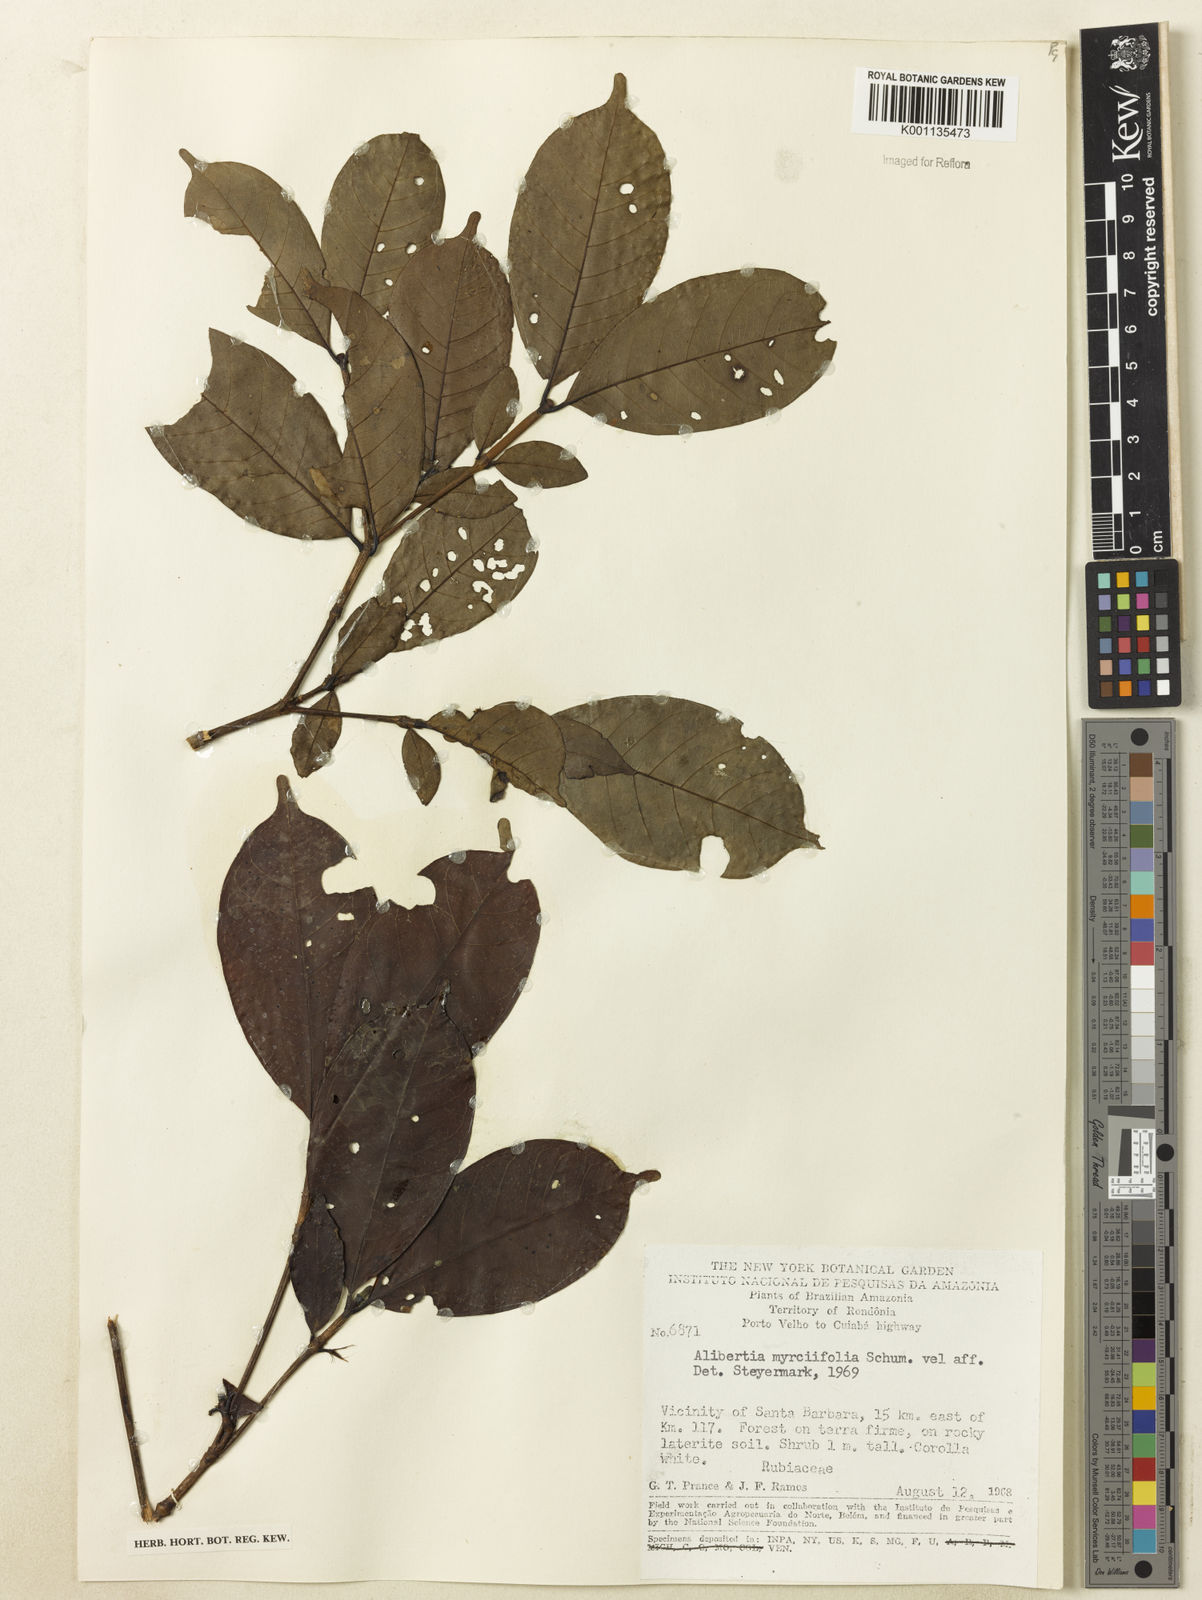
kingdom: Plantae
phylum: Tracheophyta
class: Magnoliopsida
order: Gentianales
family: Rubiaceae
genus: Cordiera
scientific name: Cordiera myrciifolia
